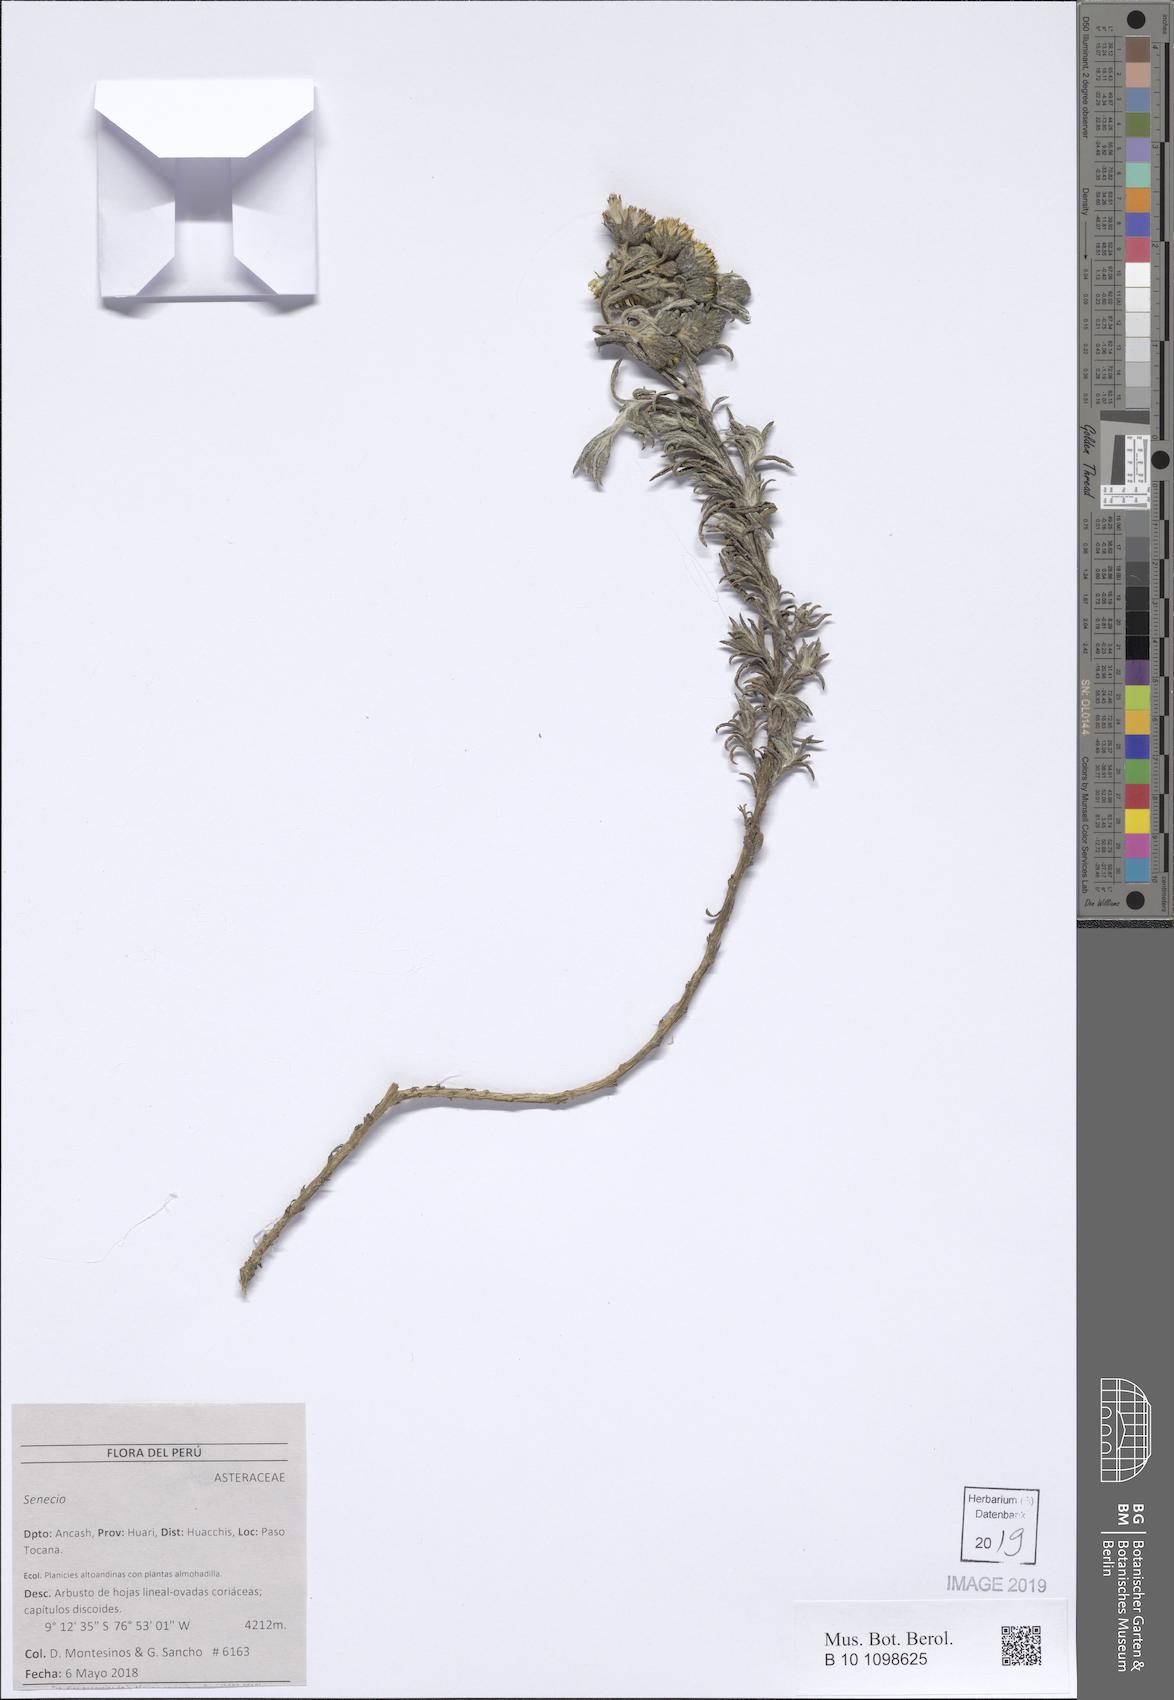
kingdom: Plantae
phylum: Tracheophyta
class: Magnoliopsida
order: Asterales
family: Asteraceae
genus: Senecio
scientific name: Senecio minesinus
